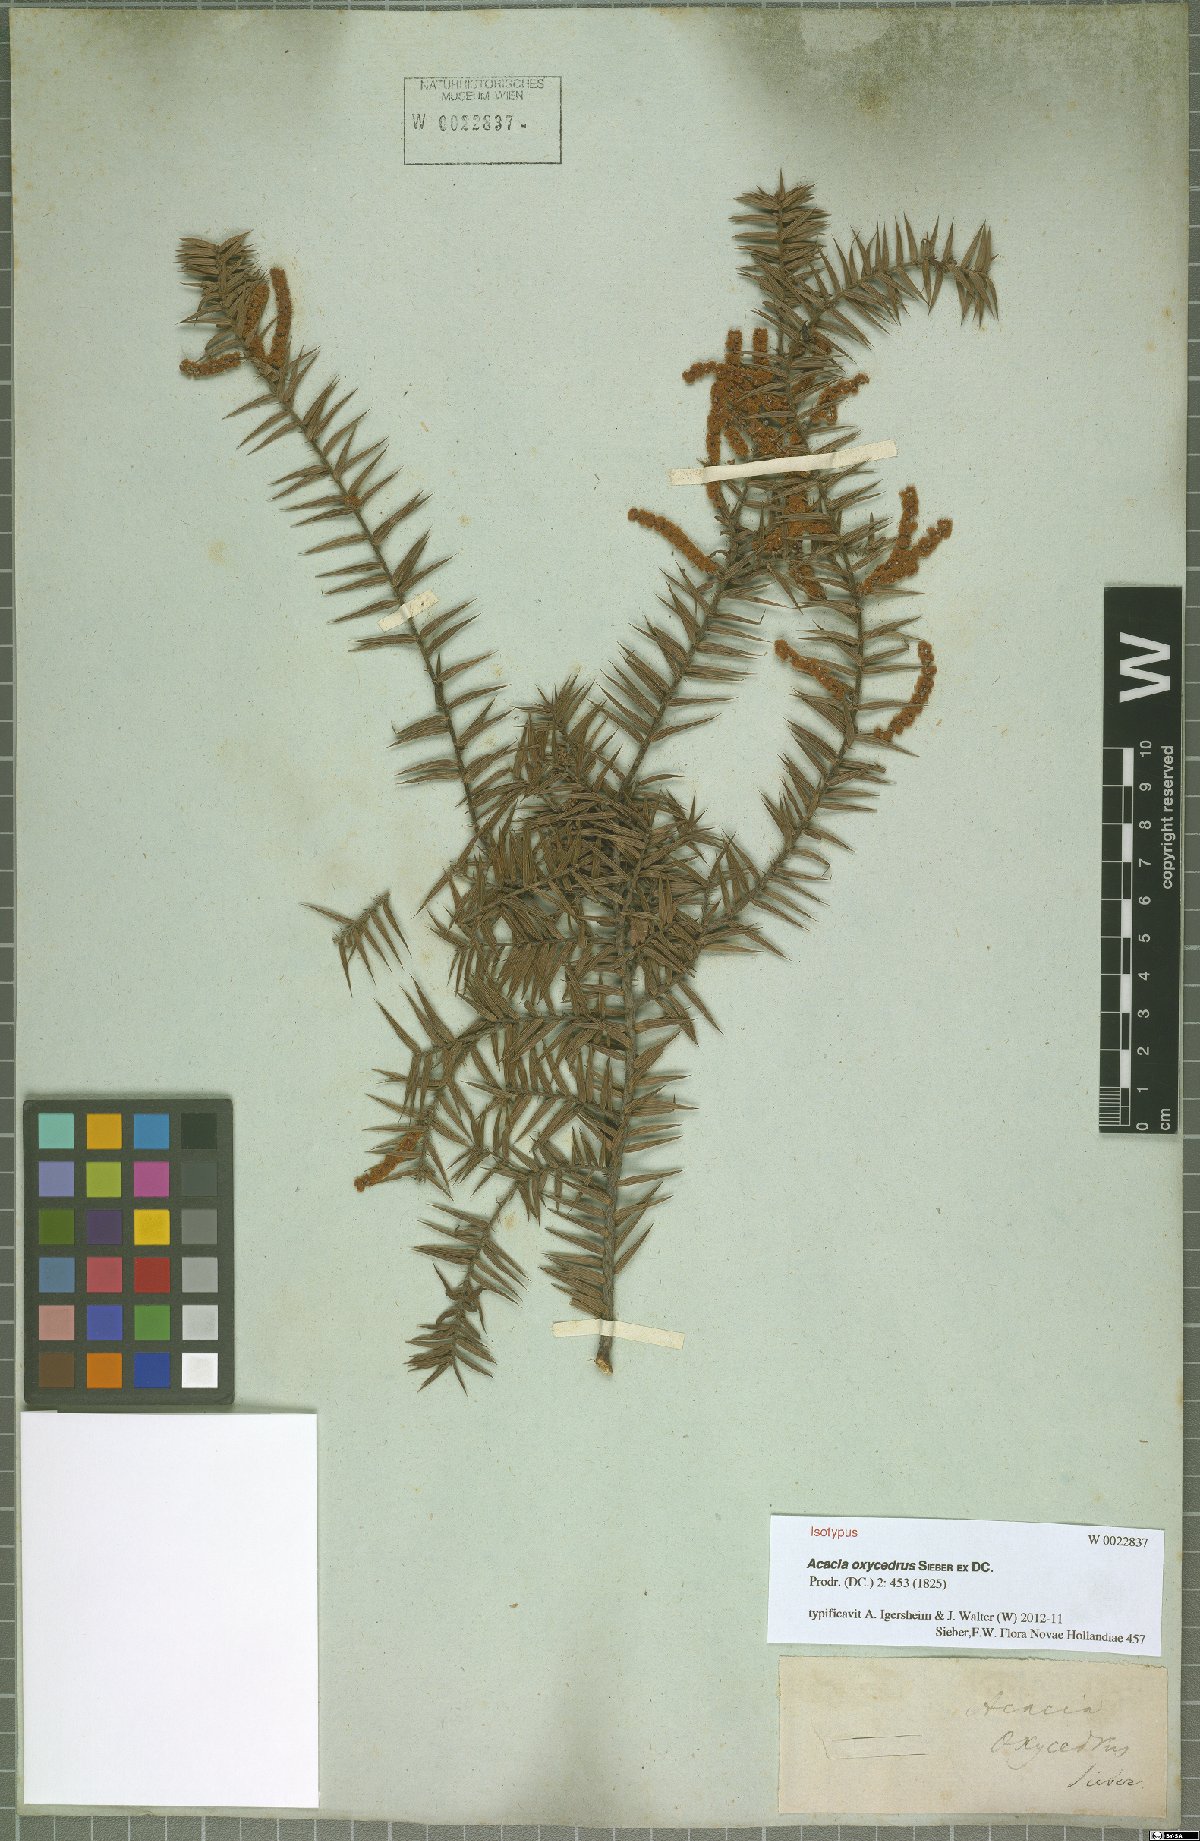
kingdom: Plantae
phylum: Tracheophyta
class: Magnoliopsida
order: Fabales
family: Fabaceae
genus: Acacia
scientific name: Acacia oxycedrus
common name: Spike wattle
